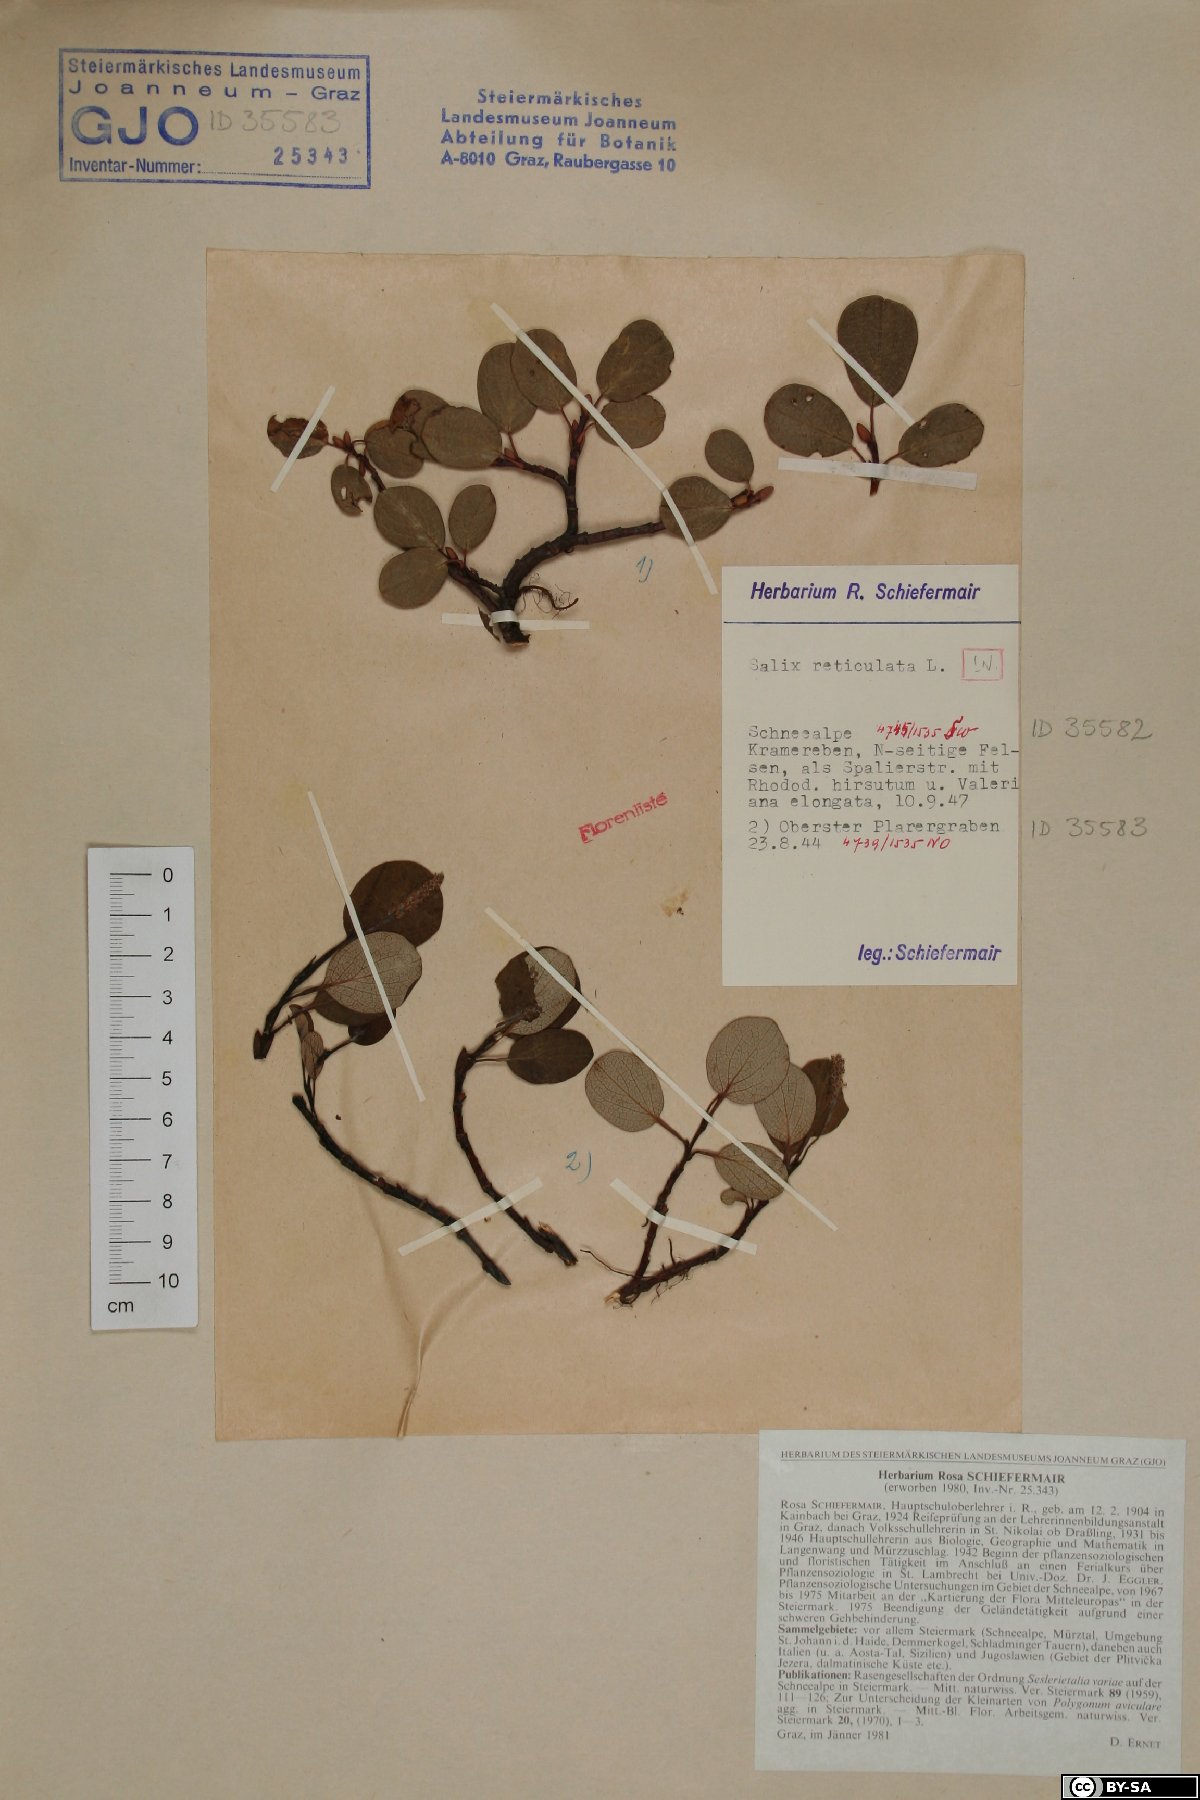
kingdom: Plantae
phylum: Tracheophyta
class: Magnoliopsida
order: Malpighiales
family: Salicaceae
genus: Salix
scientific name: Salix reticulata
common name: Net-leaved willow
